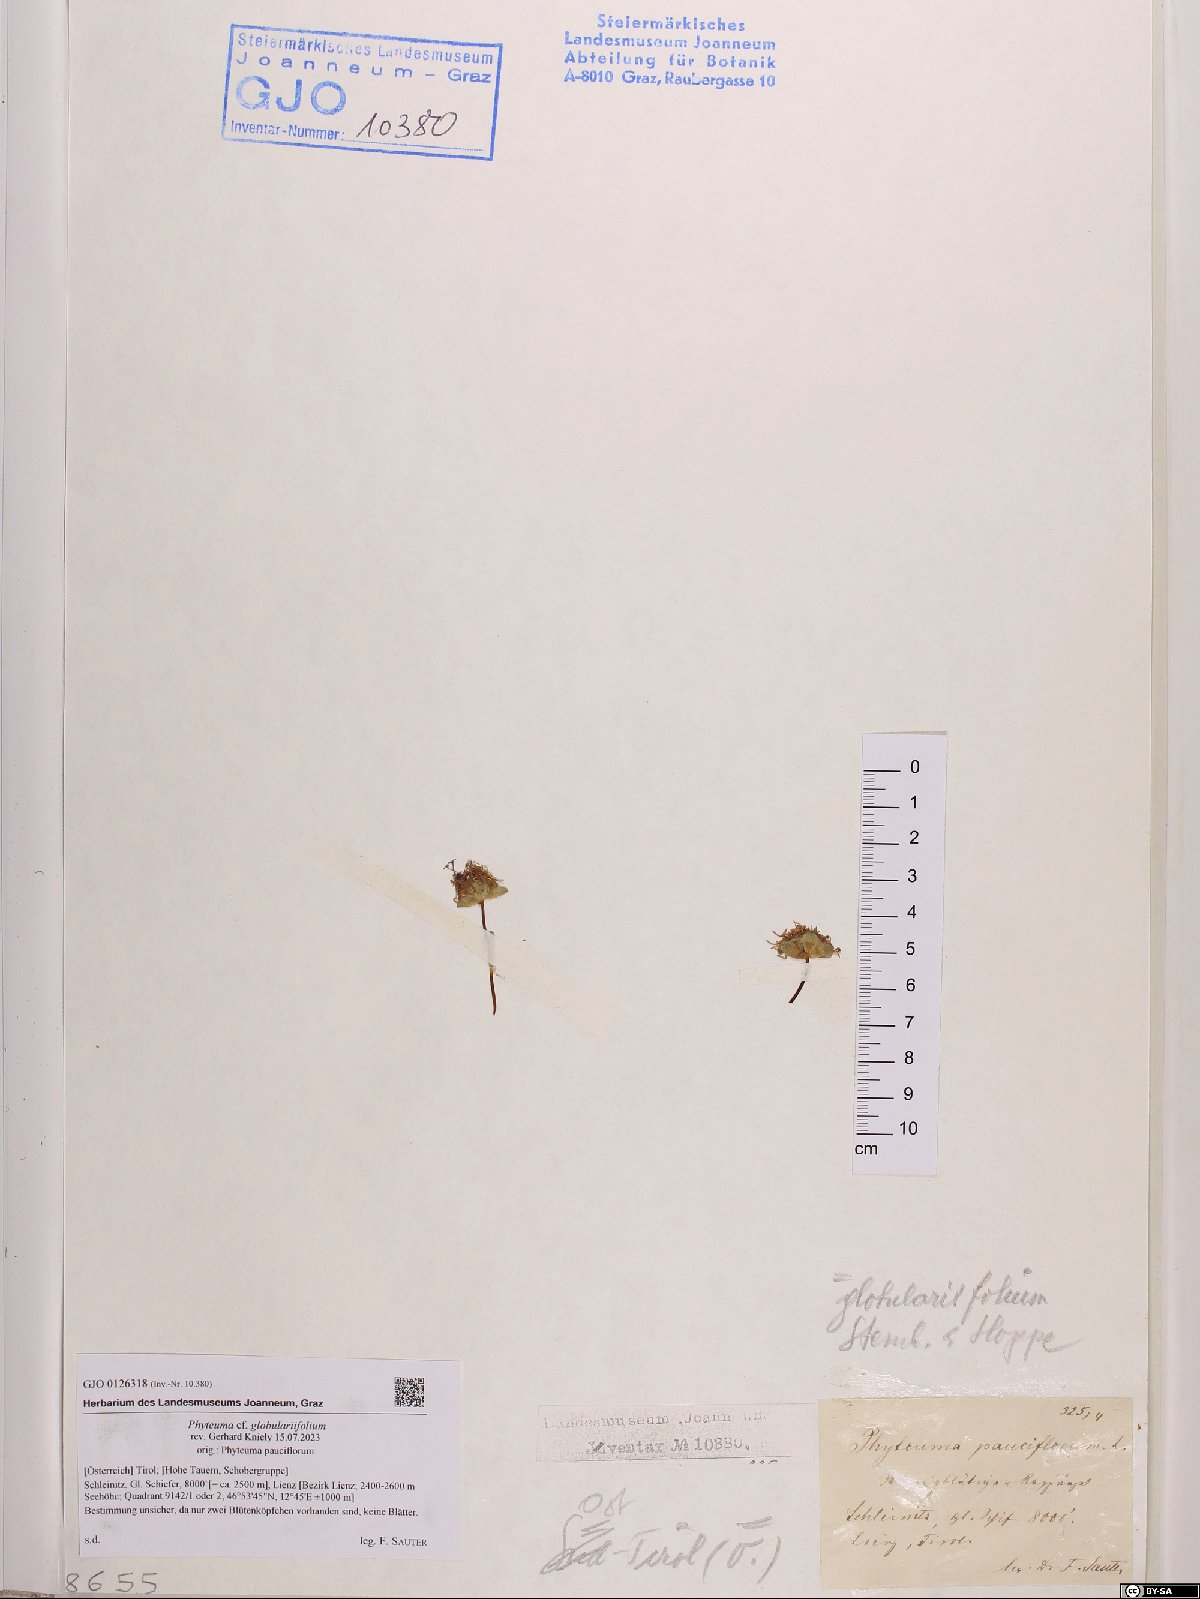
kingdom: Plantae
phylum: Tracheophyta
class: Magnoliopsida
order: Asterales
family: Campanulaceae
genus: Phyteuma
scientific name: Phyteuma globulariifolium
